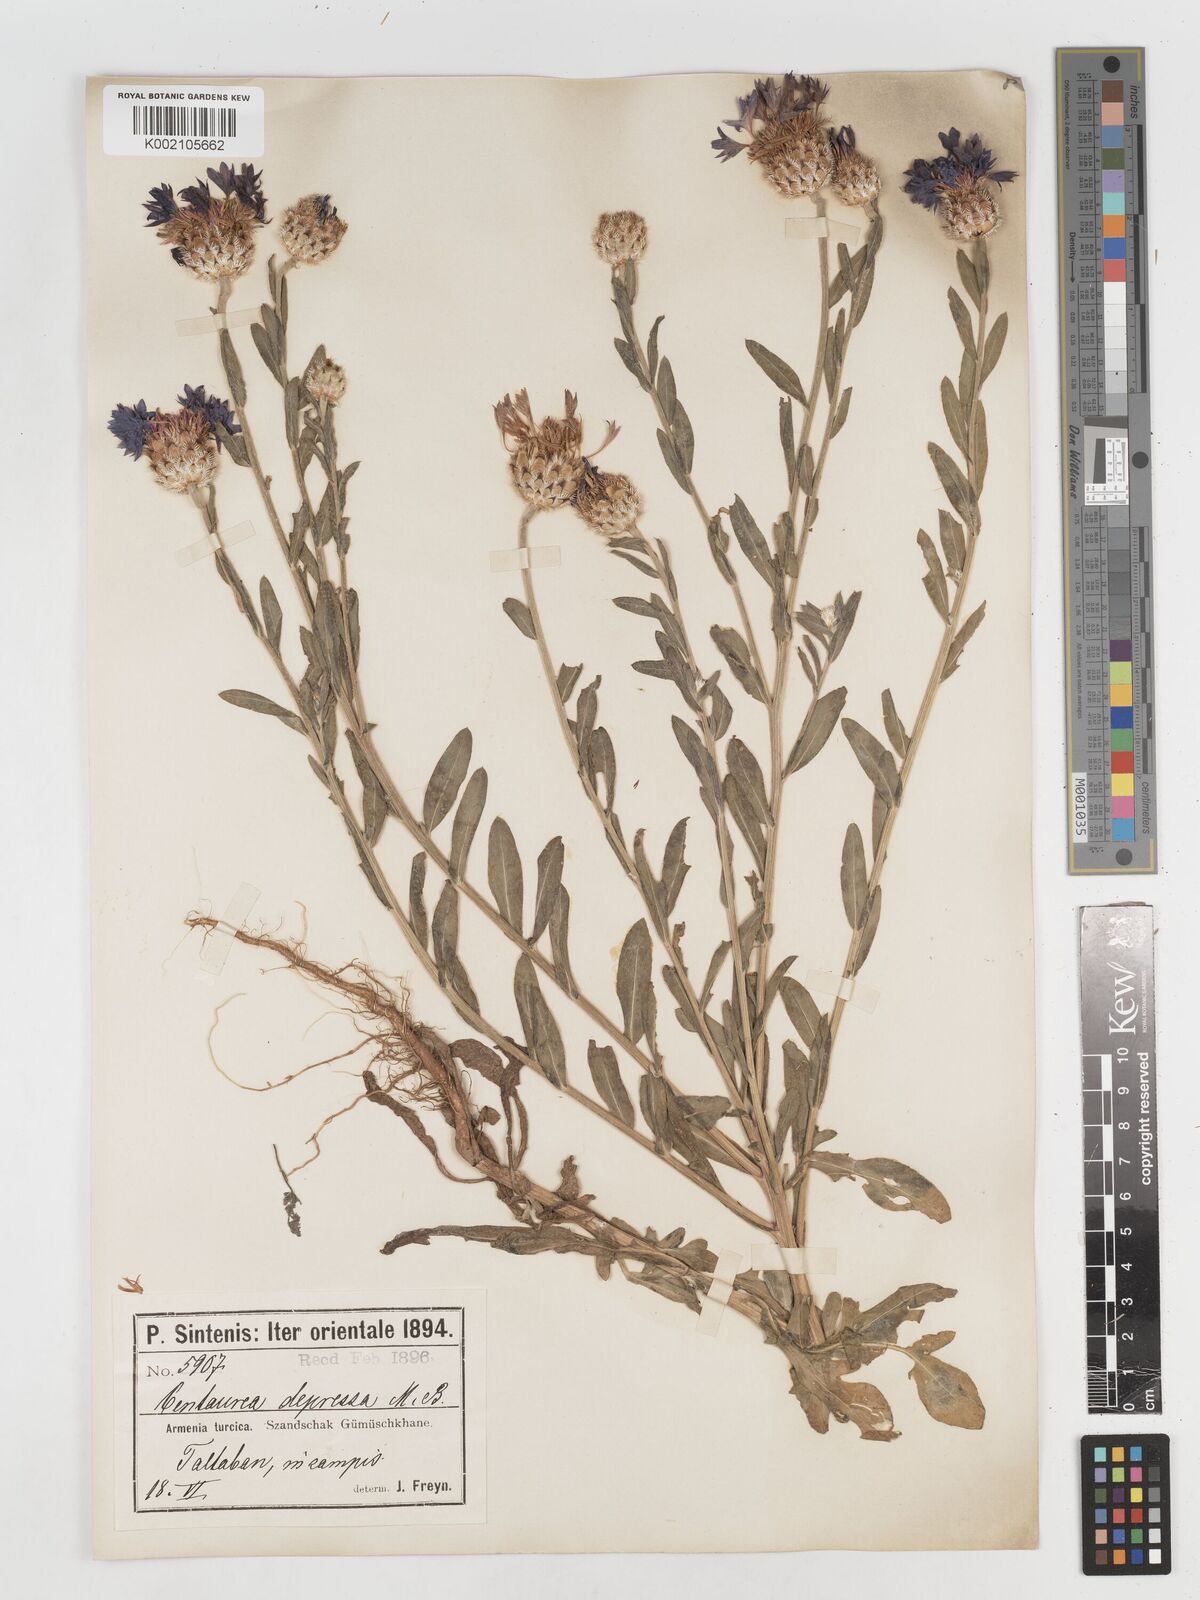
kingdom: Plantae
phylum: Tracheophyta
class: Magnoliopsida
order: Asterales
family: Asteraceae
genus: Centaurea
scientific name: Centaurea depressa
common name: Iranian knapweed
